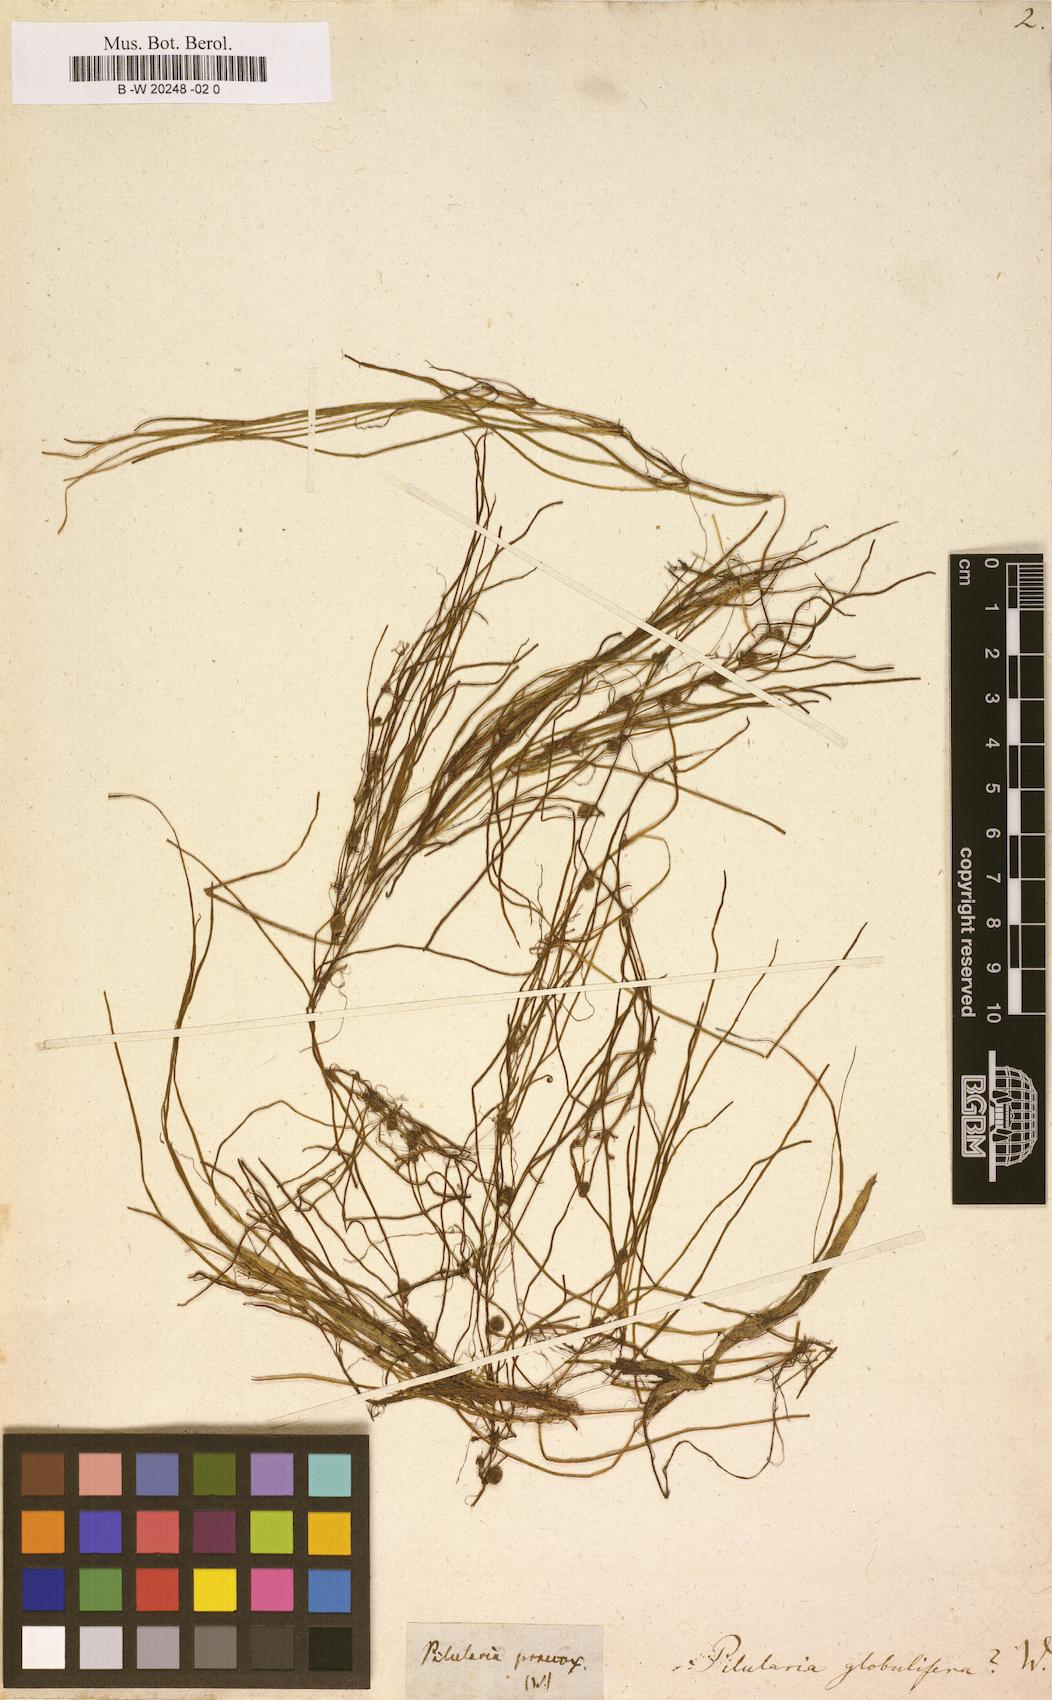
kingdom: Plantae
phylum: Tracheophyta
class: Polypodiopsida
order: Salviniales
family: Marsileaceae
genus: Pilularia
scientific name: Pilularia globulifera
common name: Pillwort
